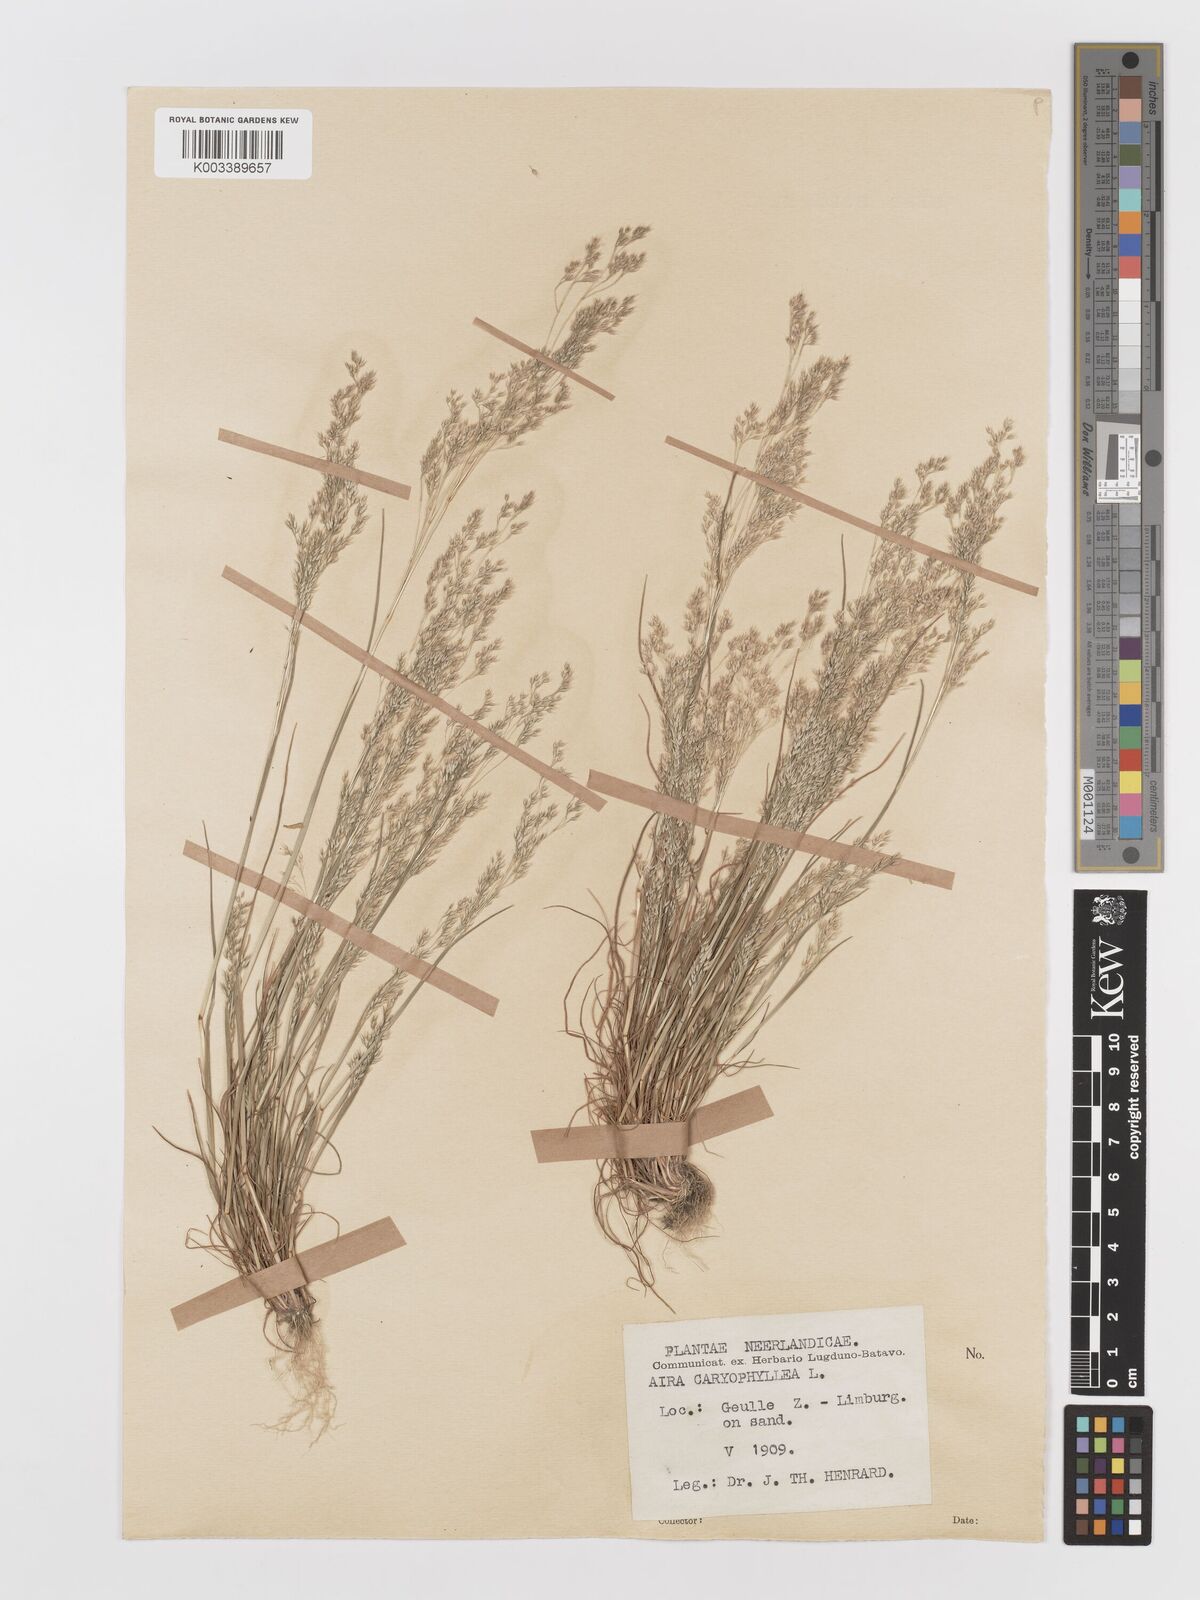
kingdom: Plantae
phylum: Tracheophyta
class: Liliopsida
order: Poales
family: Poaceae
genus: Aira
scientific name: Aira caryophyllea
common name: Silver hairgrass
